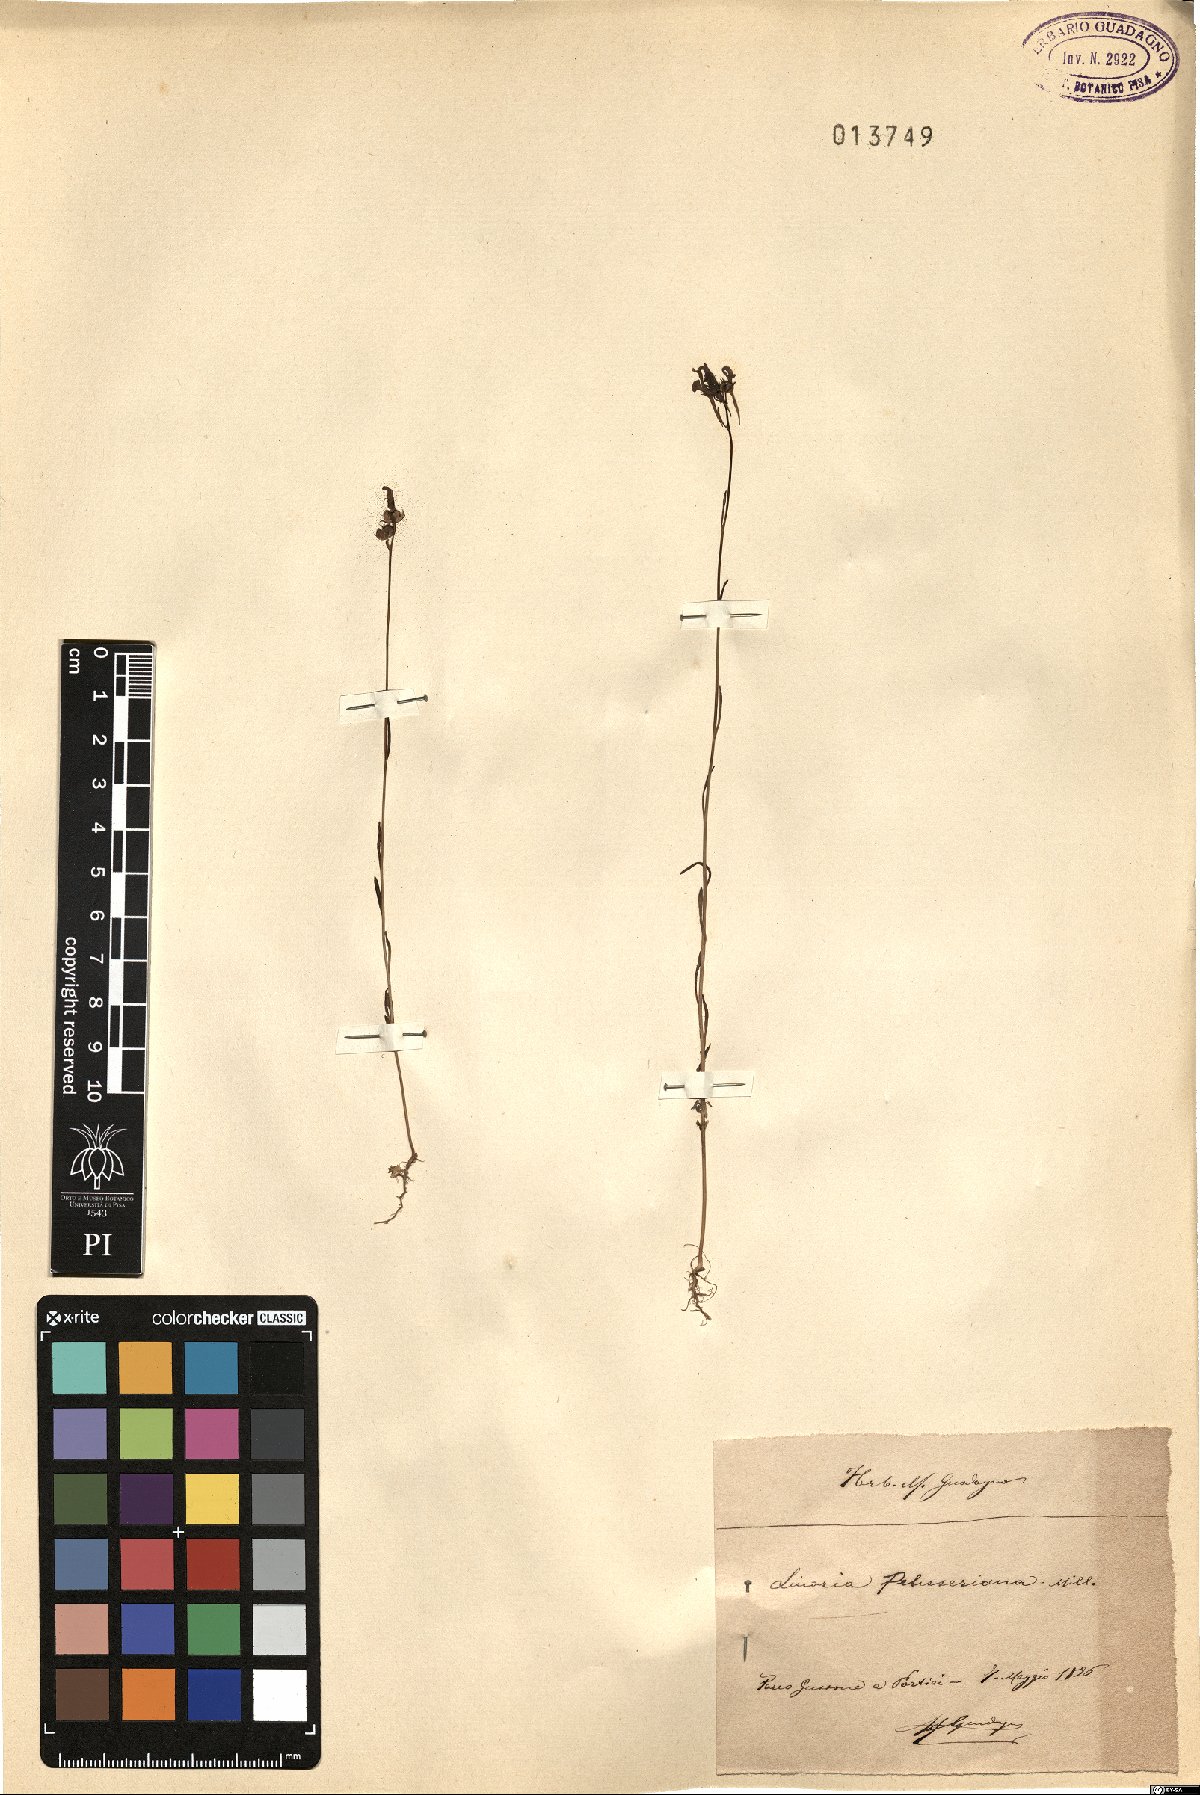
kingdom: Plantae
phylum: Tracheophyta
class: Magnoliopsida
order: Lamiales
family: Plantaginaceae
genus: Linaria
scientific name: Linaria pelisseriana
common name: Jersey toadflax
